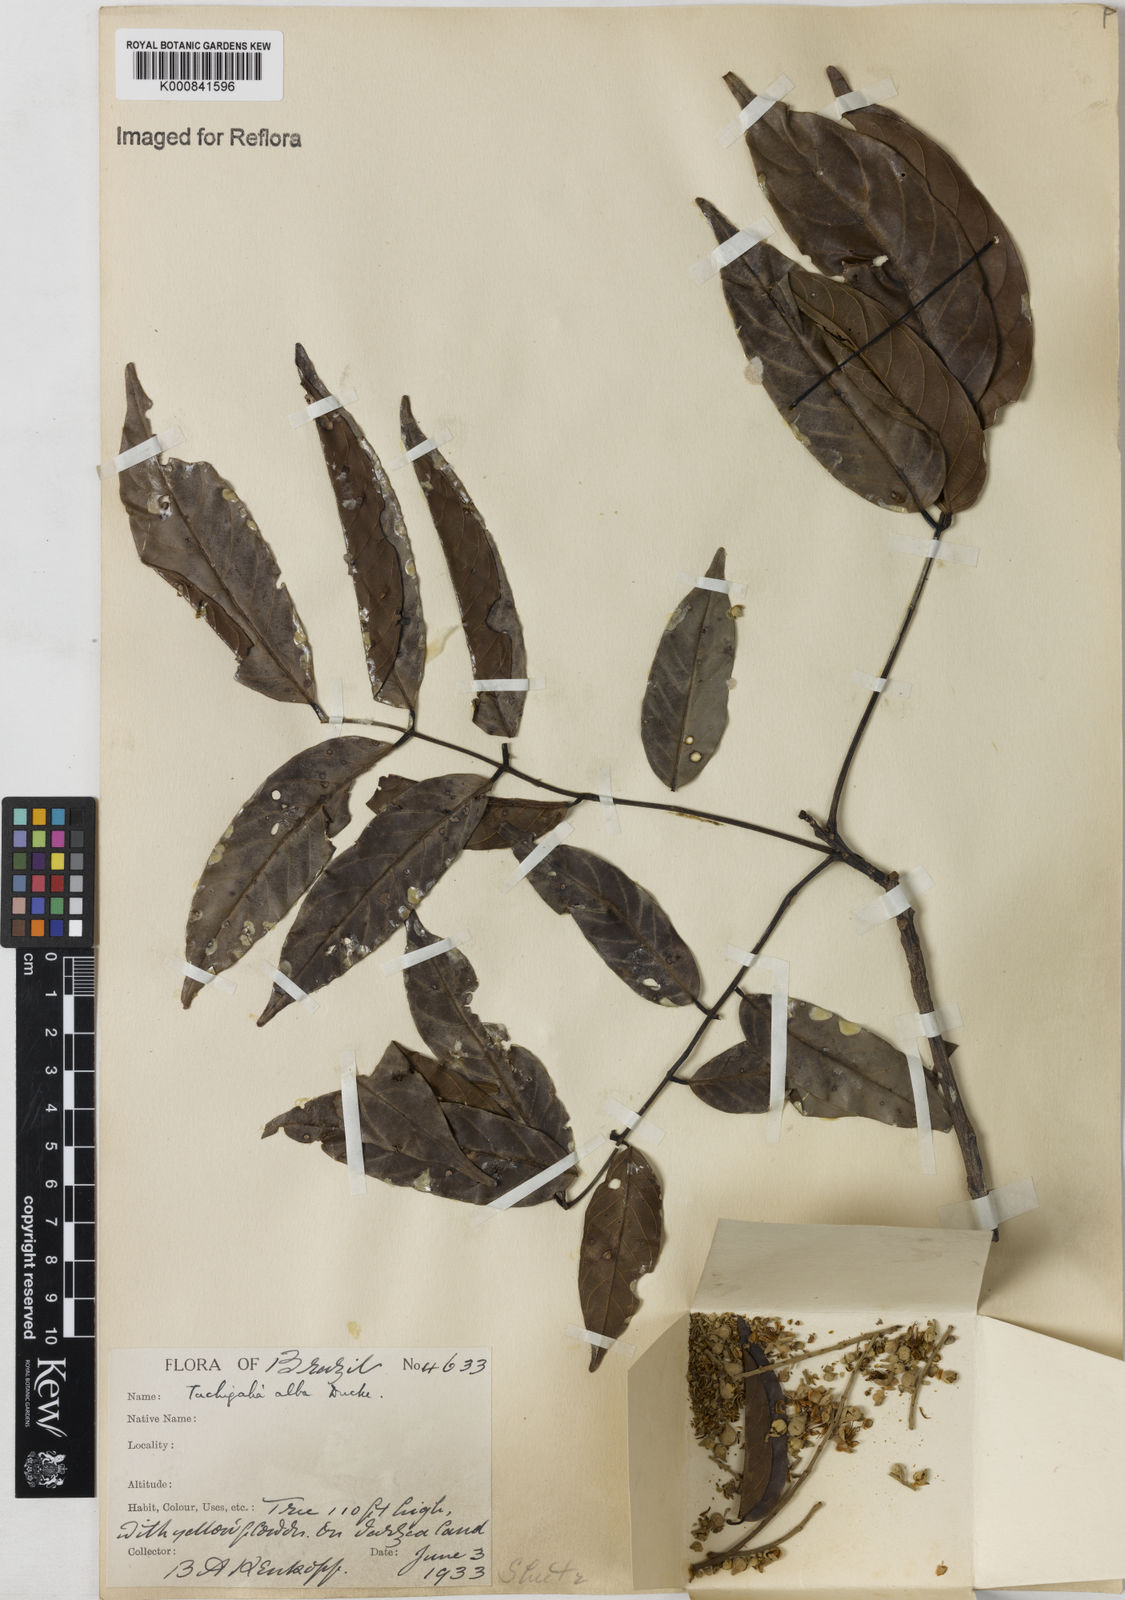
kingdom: Plantae
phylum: Tracheophyta
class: Magnoliopsida
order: Fabales
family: Fabaceae
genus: Tachigali
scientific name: Tachigali alba
